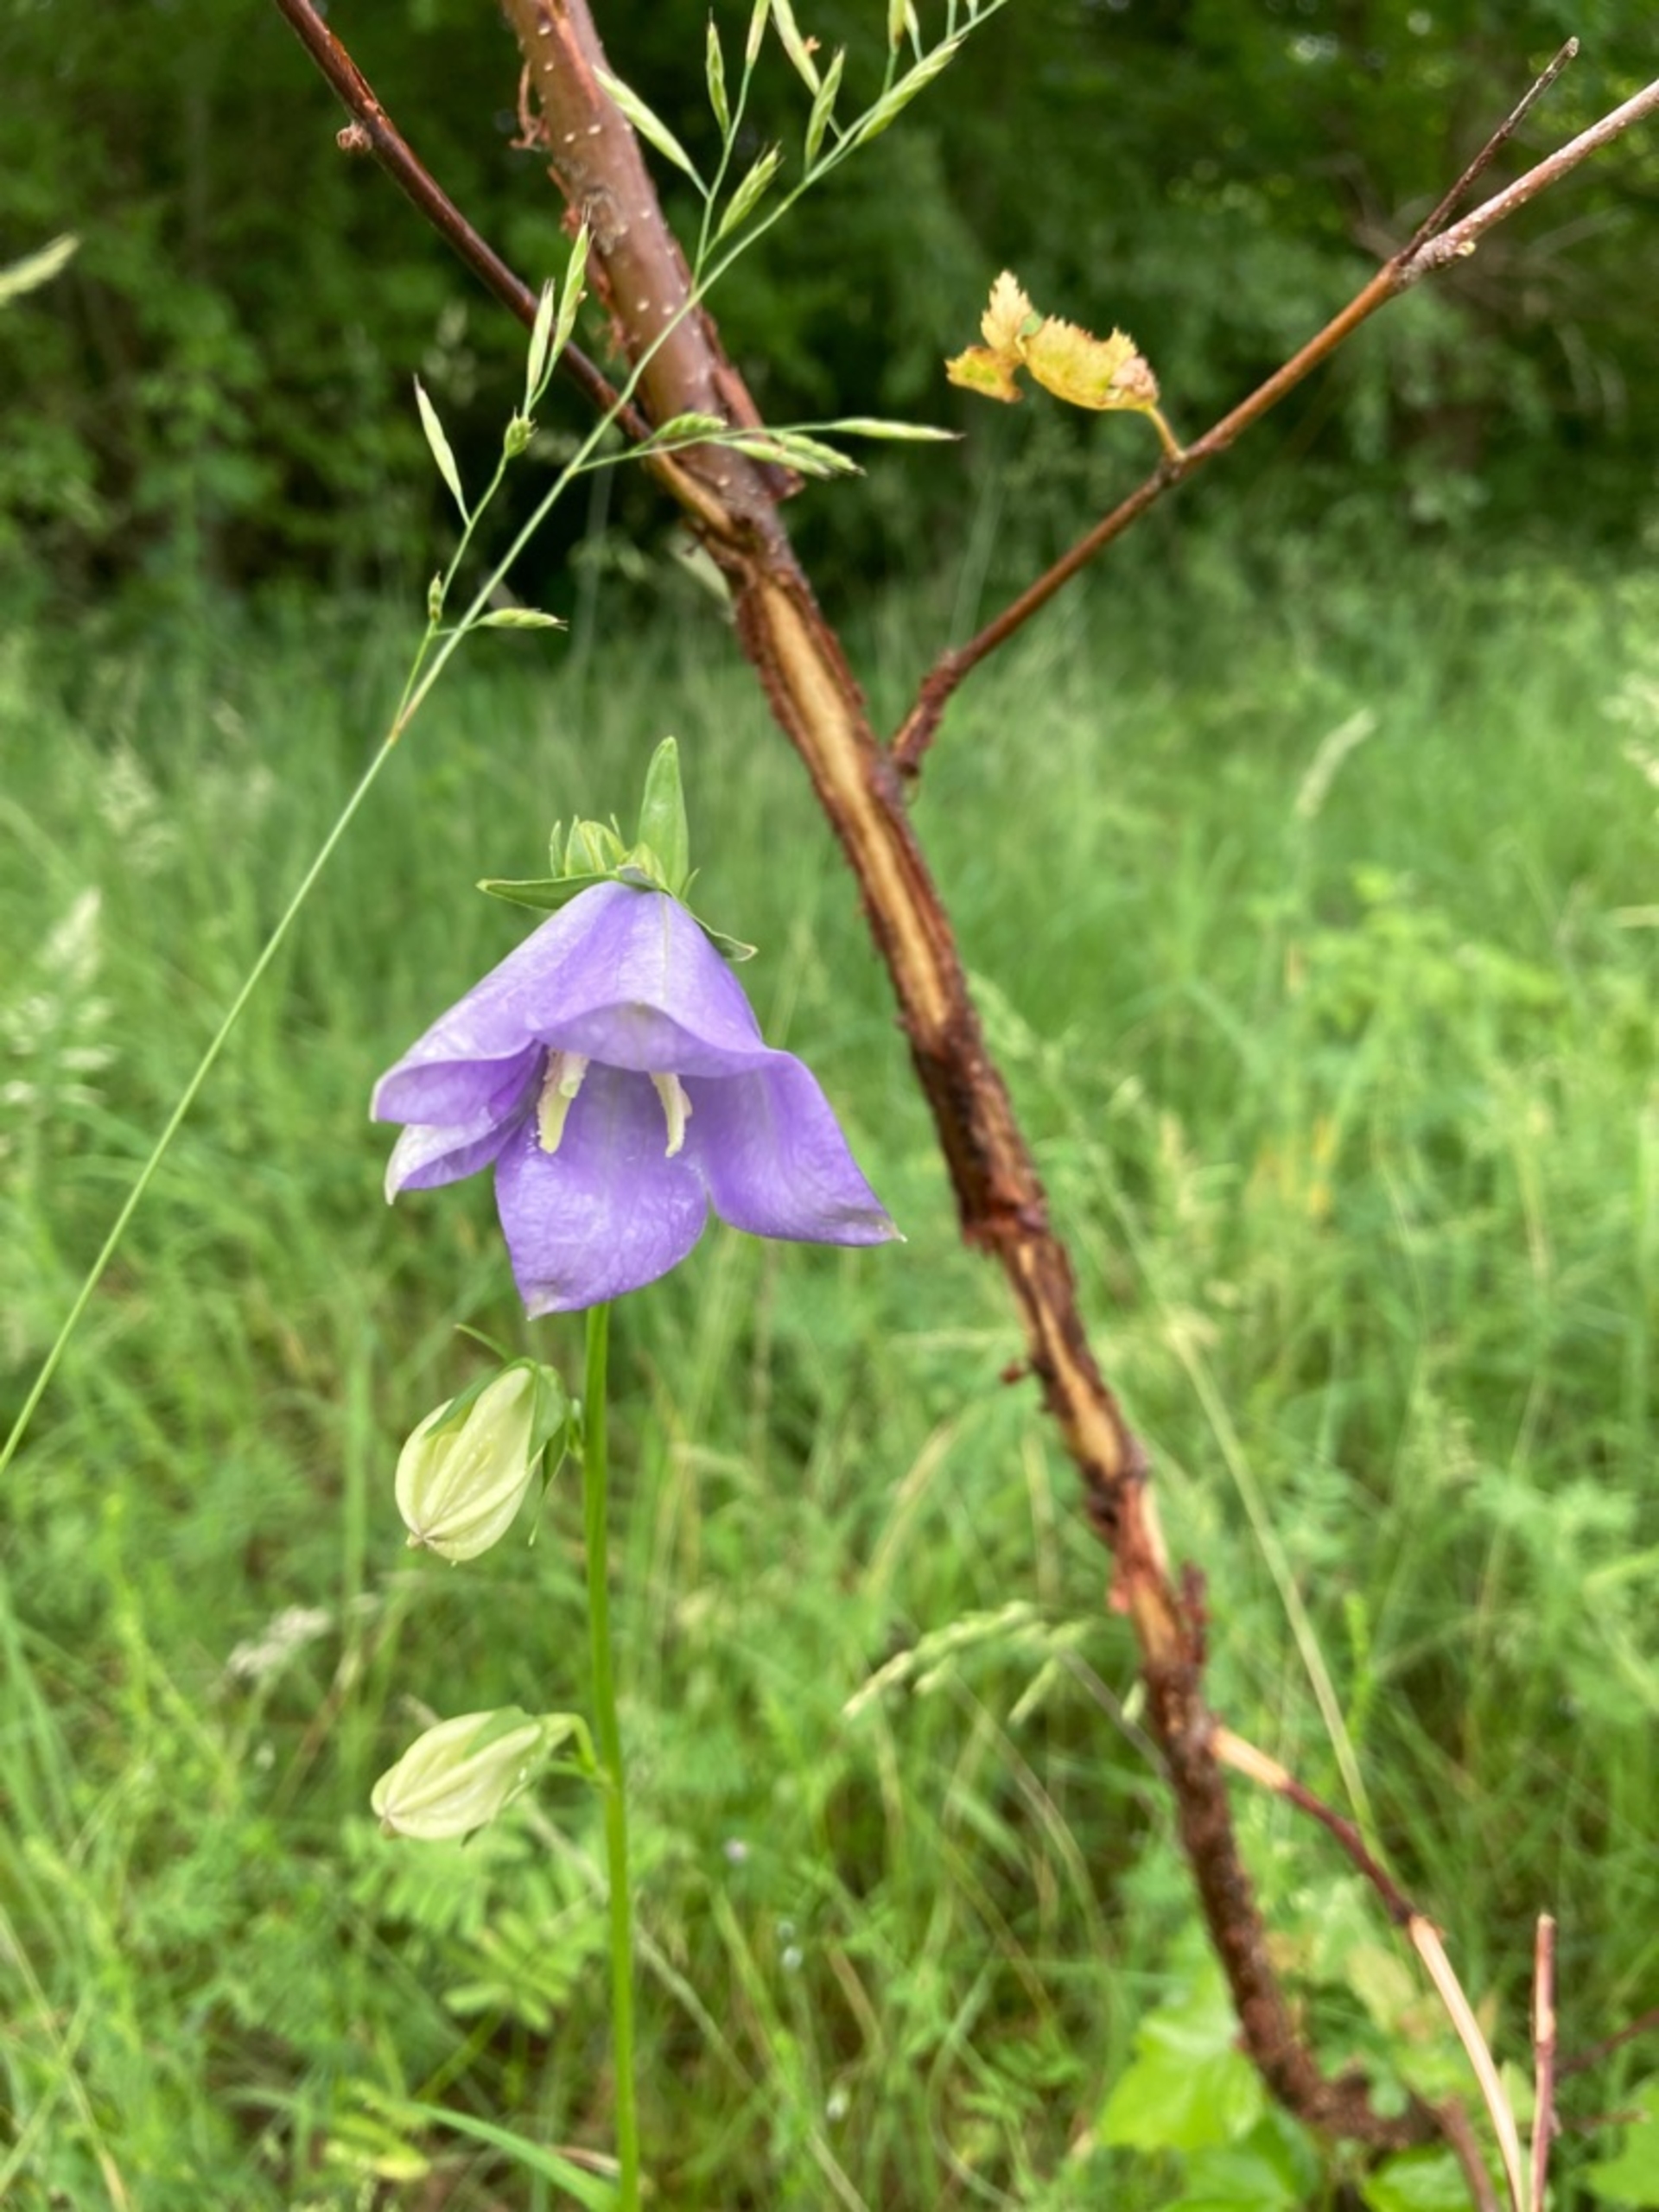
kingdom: Plantae
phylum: Tracheophyta
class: Magnoliopsida
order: Asterales
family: Campanulaceae
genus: Campanula
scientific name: Campanula persicifolia
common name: Smalbladet klokke
